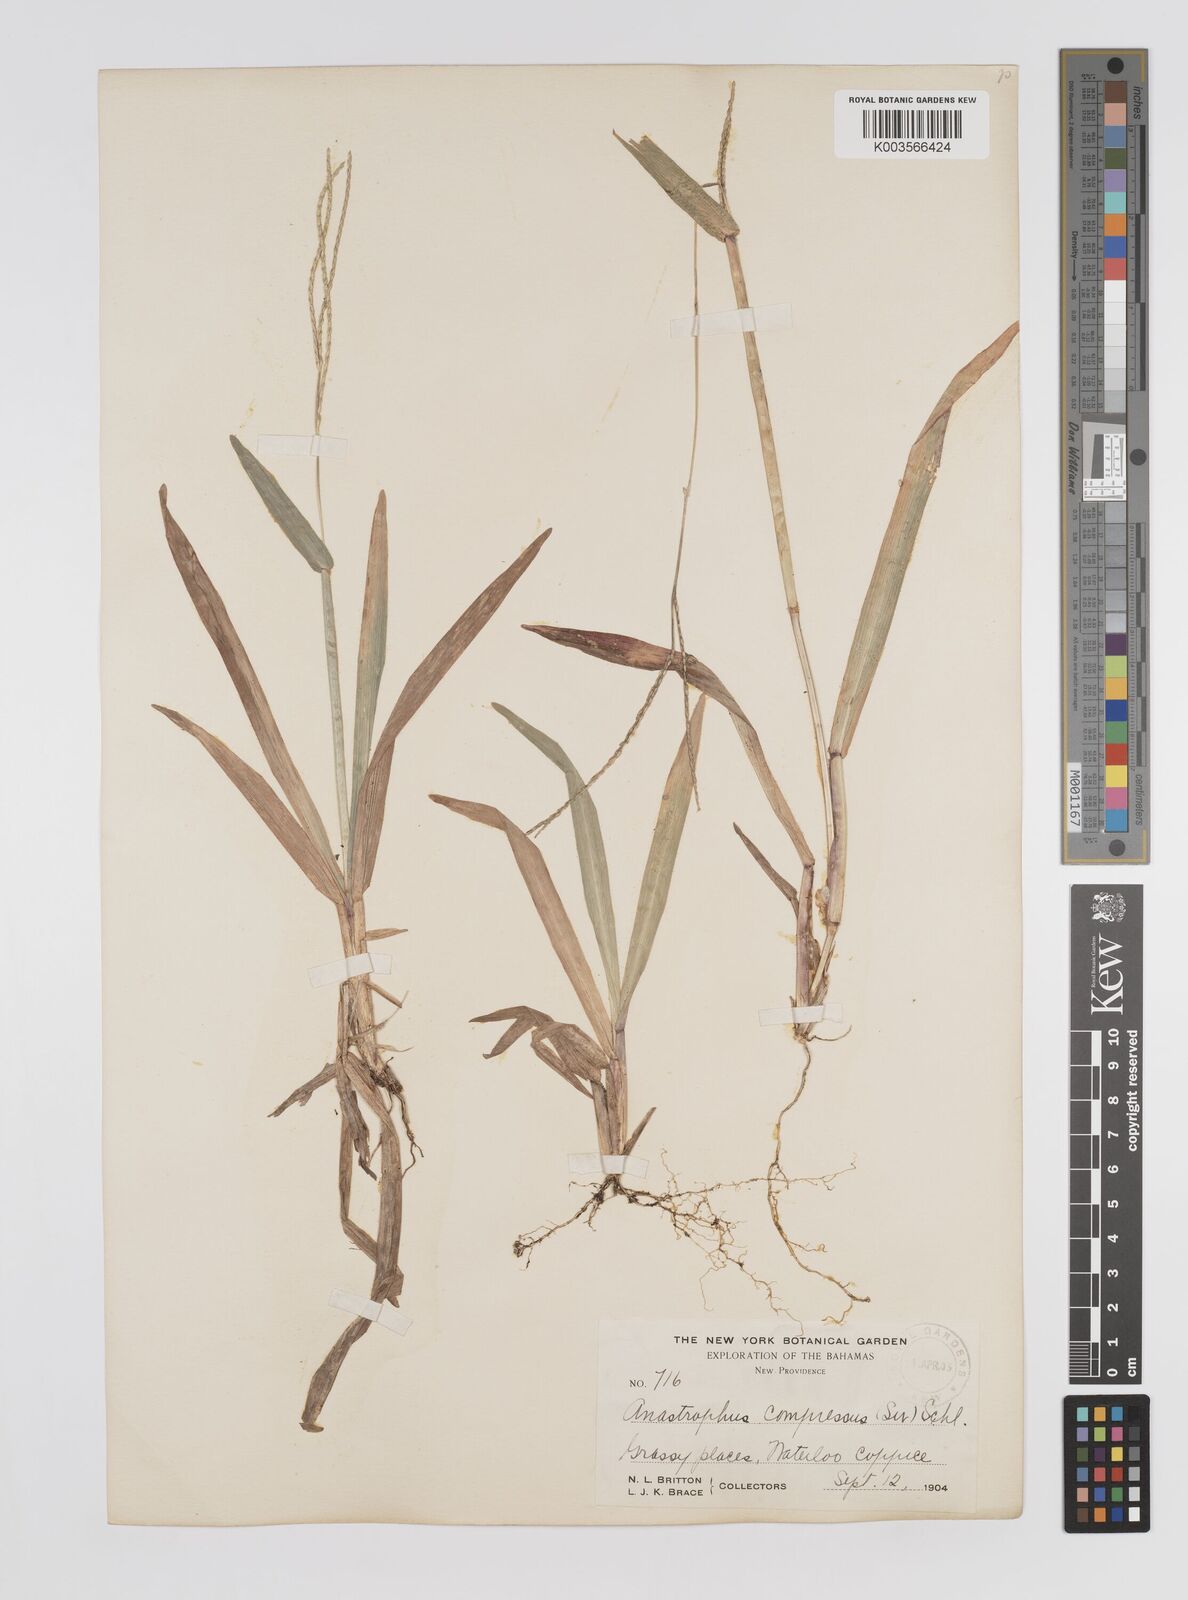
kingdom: Plantae
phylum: Tracheophyta
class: Liliopsida
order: Poales
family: Poaceae
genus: Axonopus
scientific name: Axonopus compressus
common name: American carpet grass
